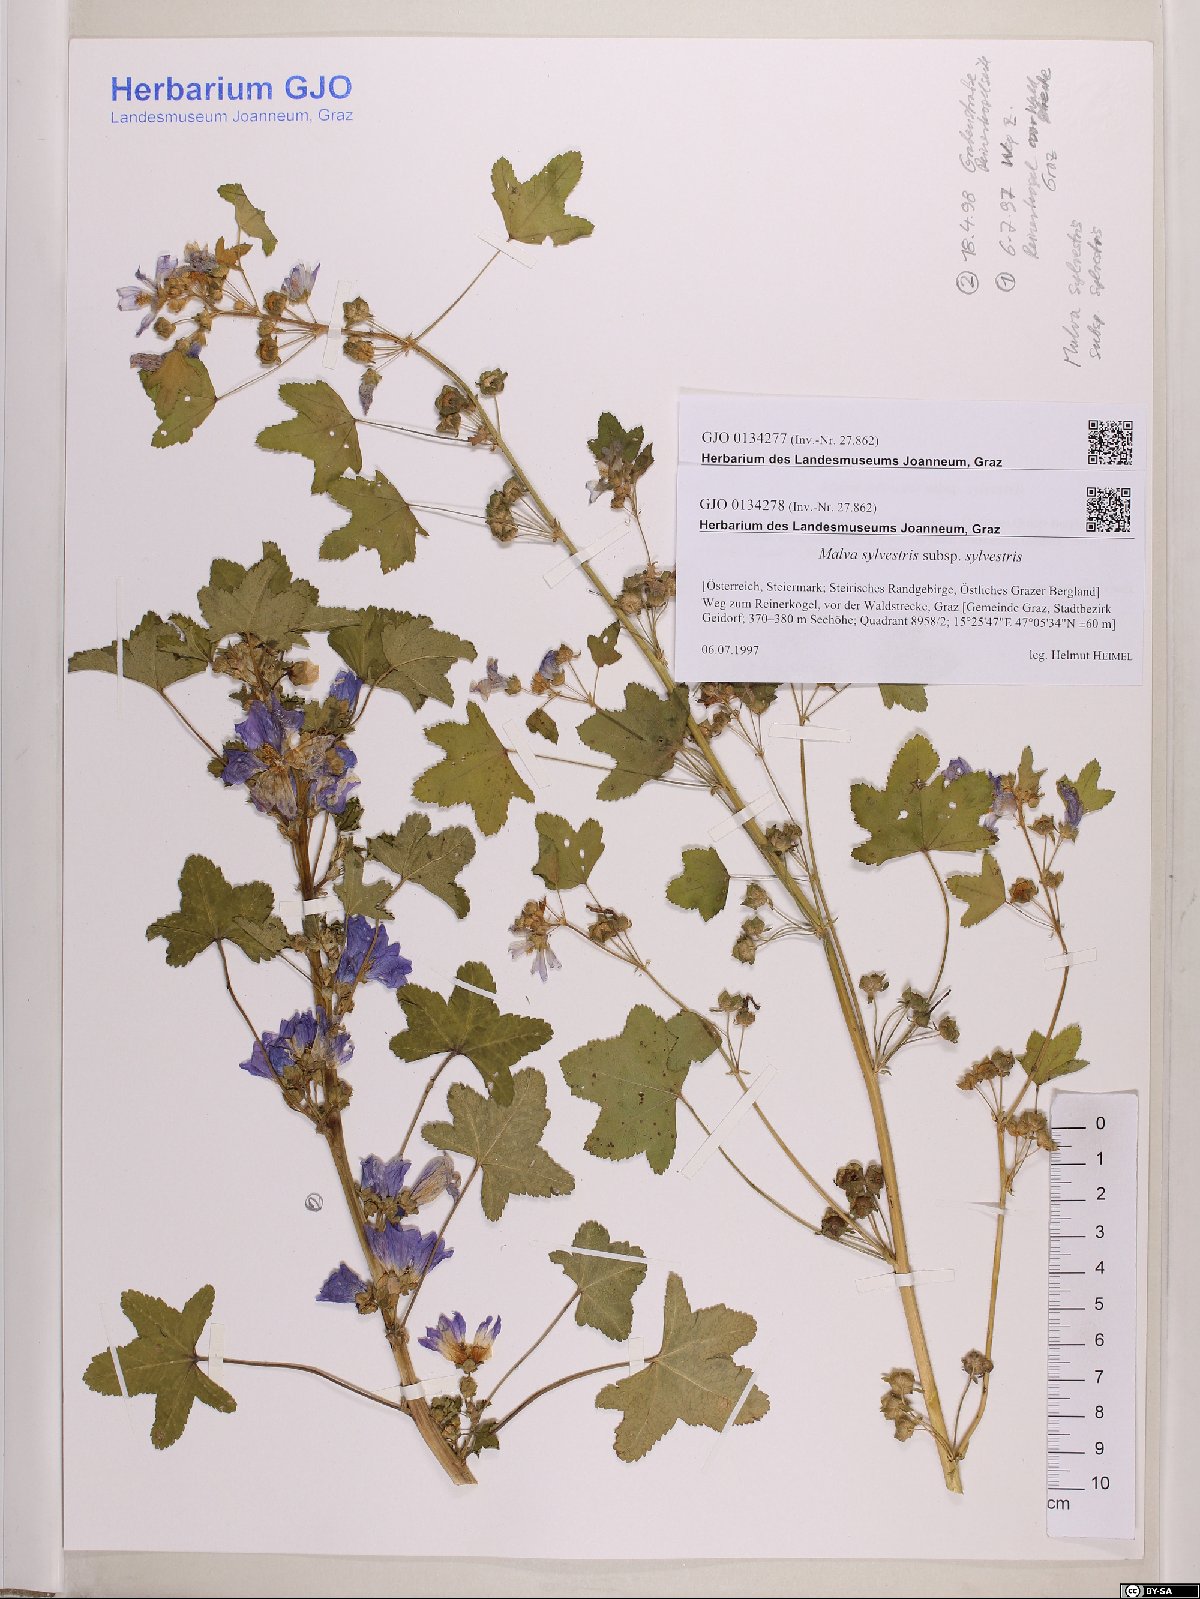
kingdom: Plantae
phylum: Tracheophyta
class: Magnoliopsida
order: Malvales
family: Malvaceae
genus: Malva
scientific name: Malva sylvestris
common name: Common mallow
